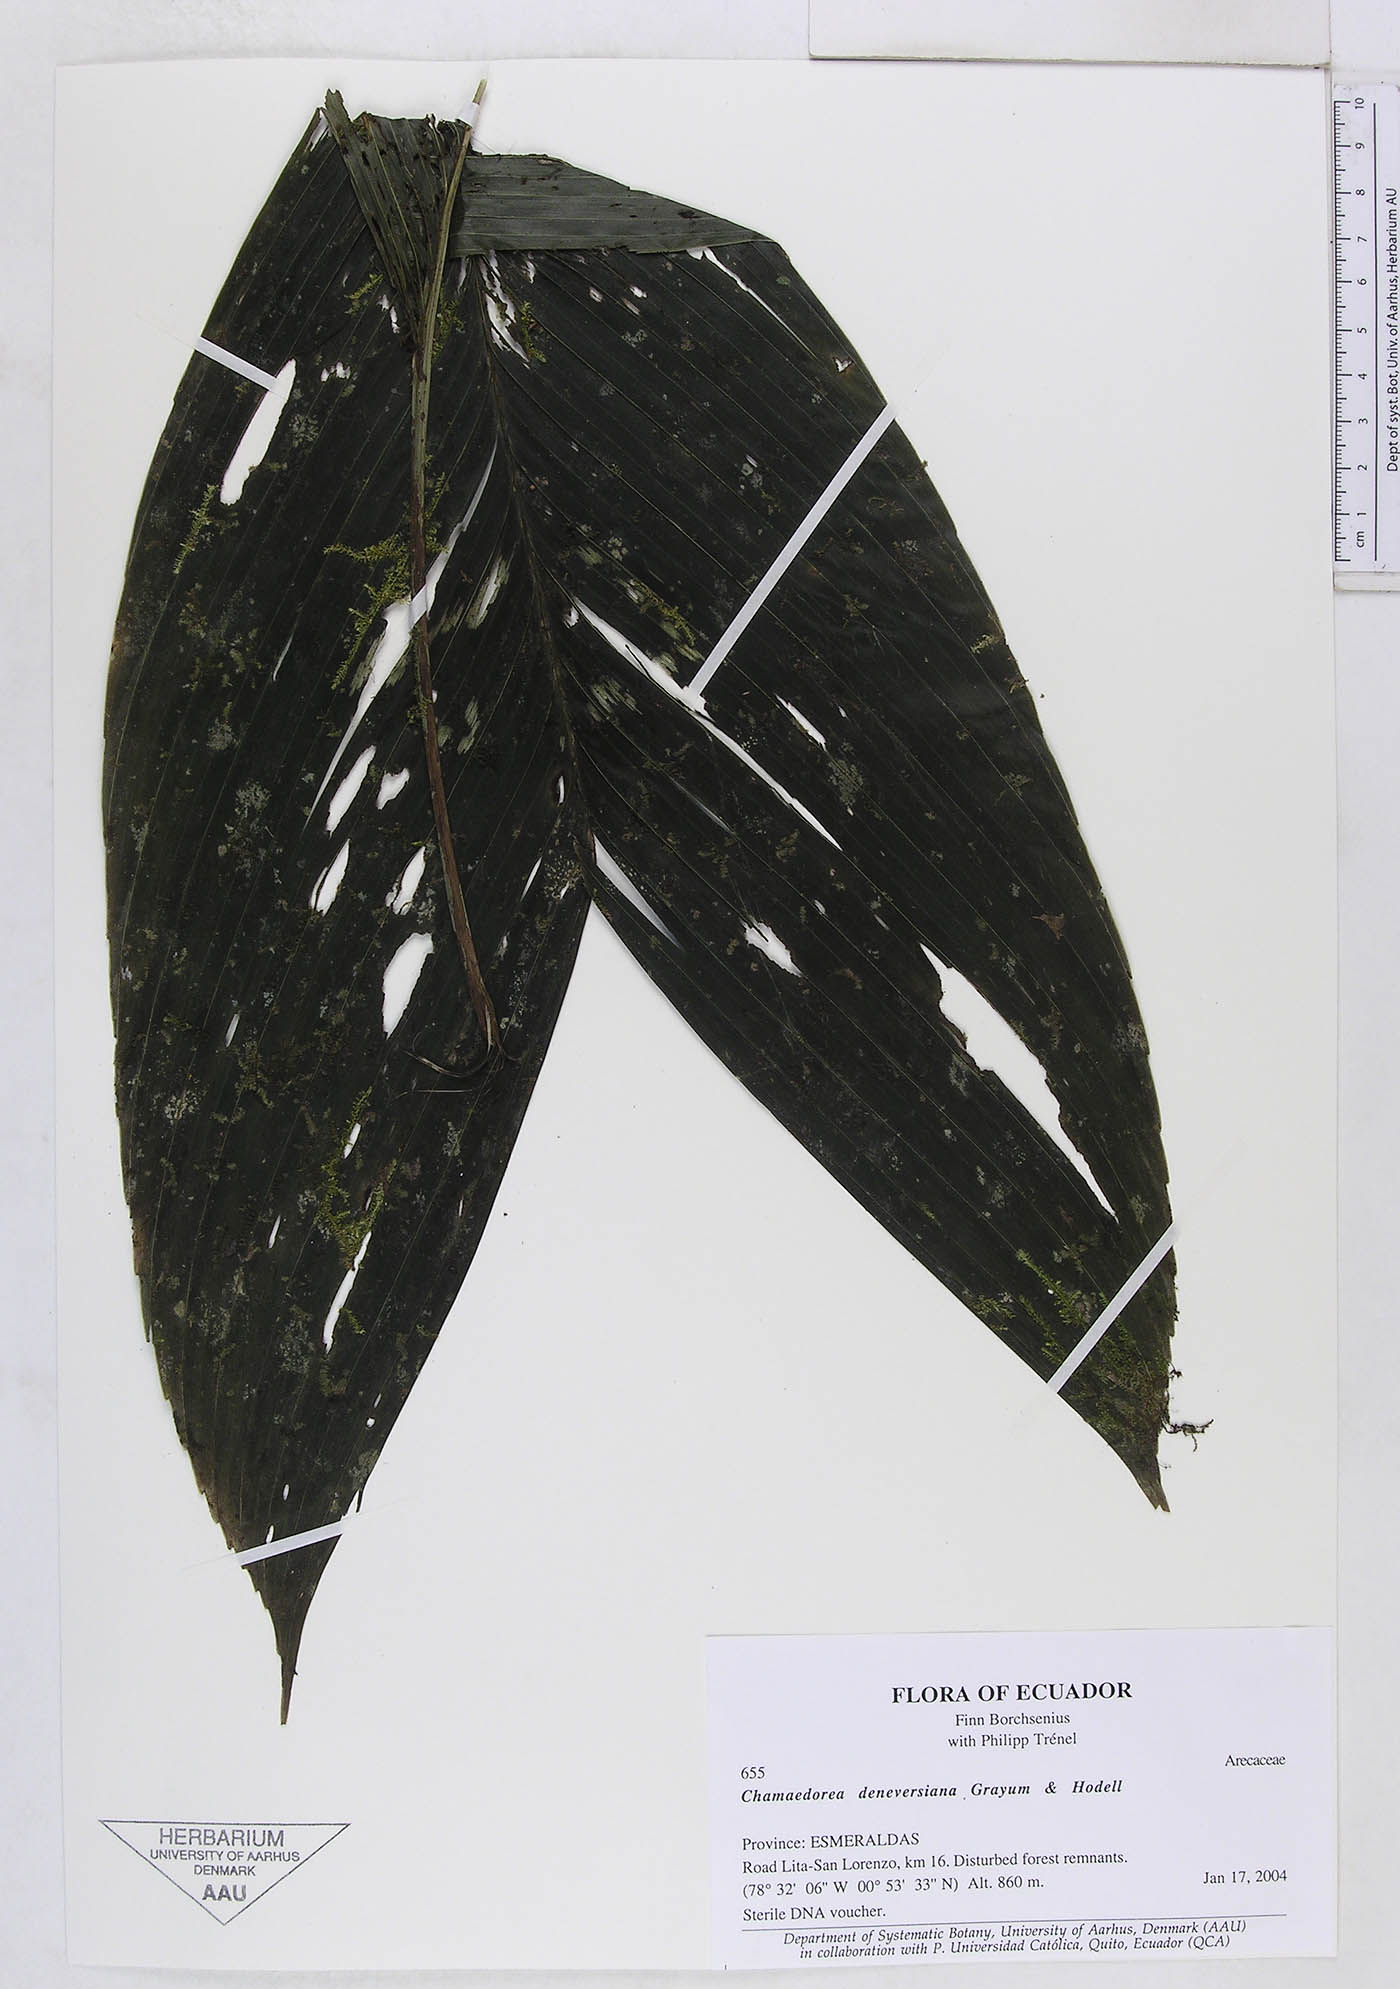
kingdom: Plantae
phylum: Tracheophyta
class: Liliopsida
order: Arecales
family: Arecaceae
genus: Chamaedorea
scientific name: Chamaedorea deneversiana
